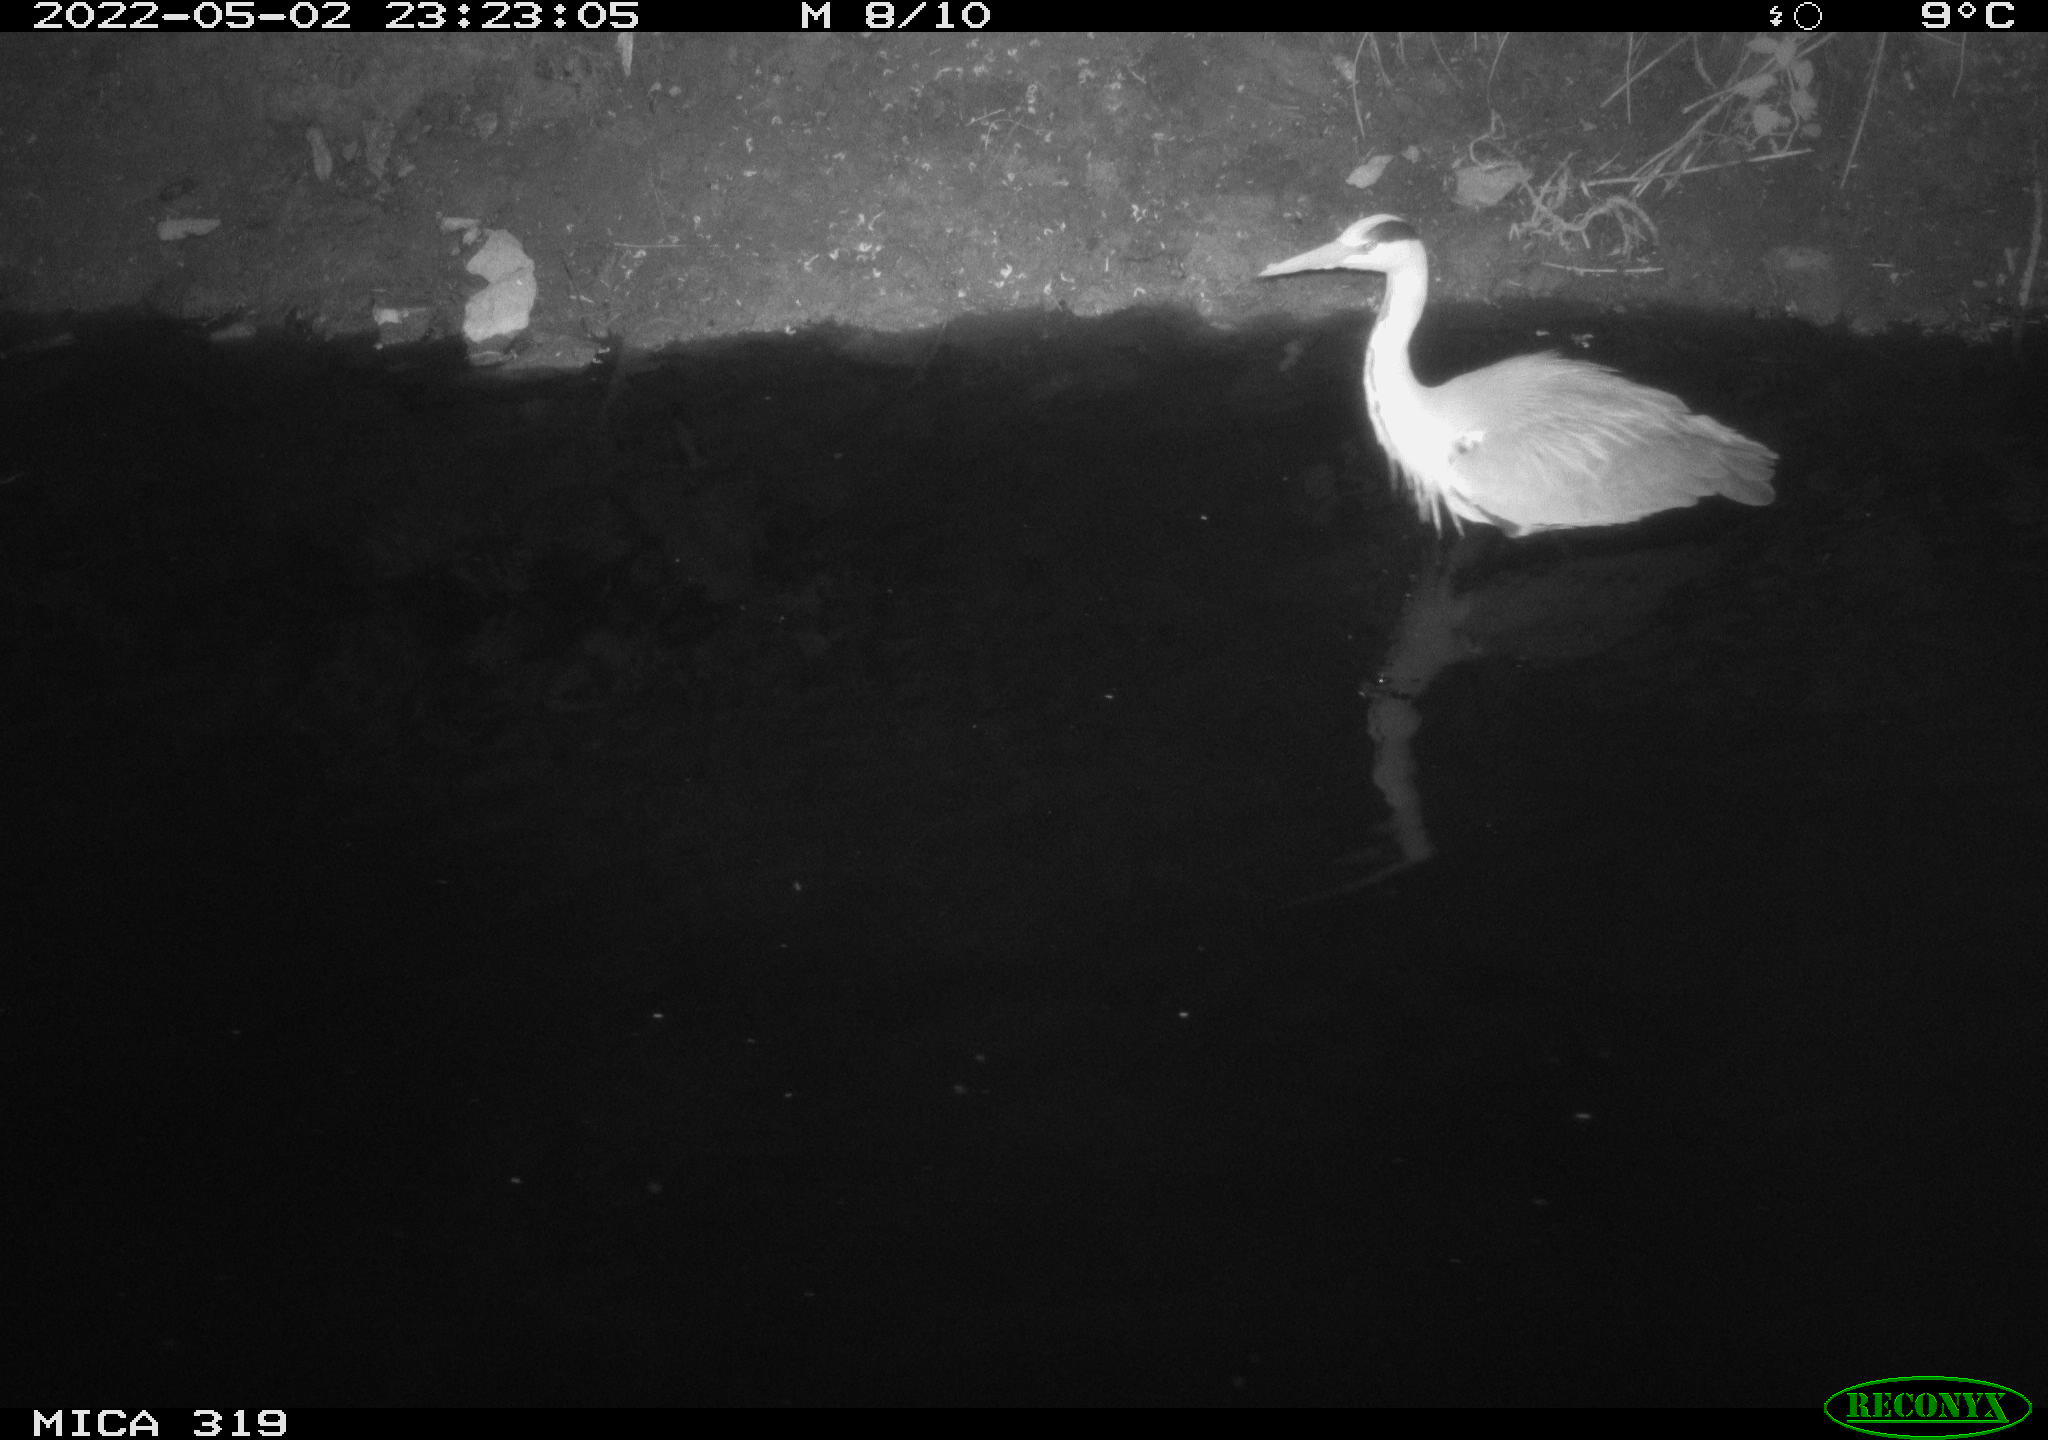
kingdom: Animalia
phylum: Chordata
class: Aves
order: Pelecaniformes
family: Ardeidae
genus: Ardea
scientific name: Ardea cinerea
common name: Grey heron
